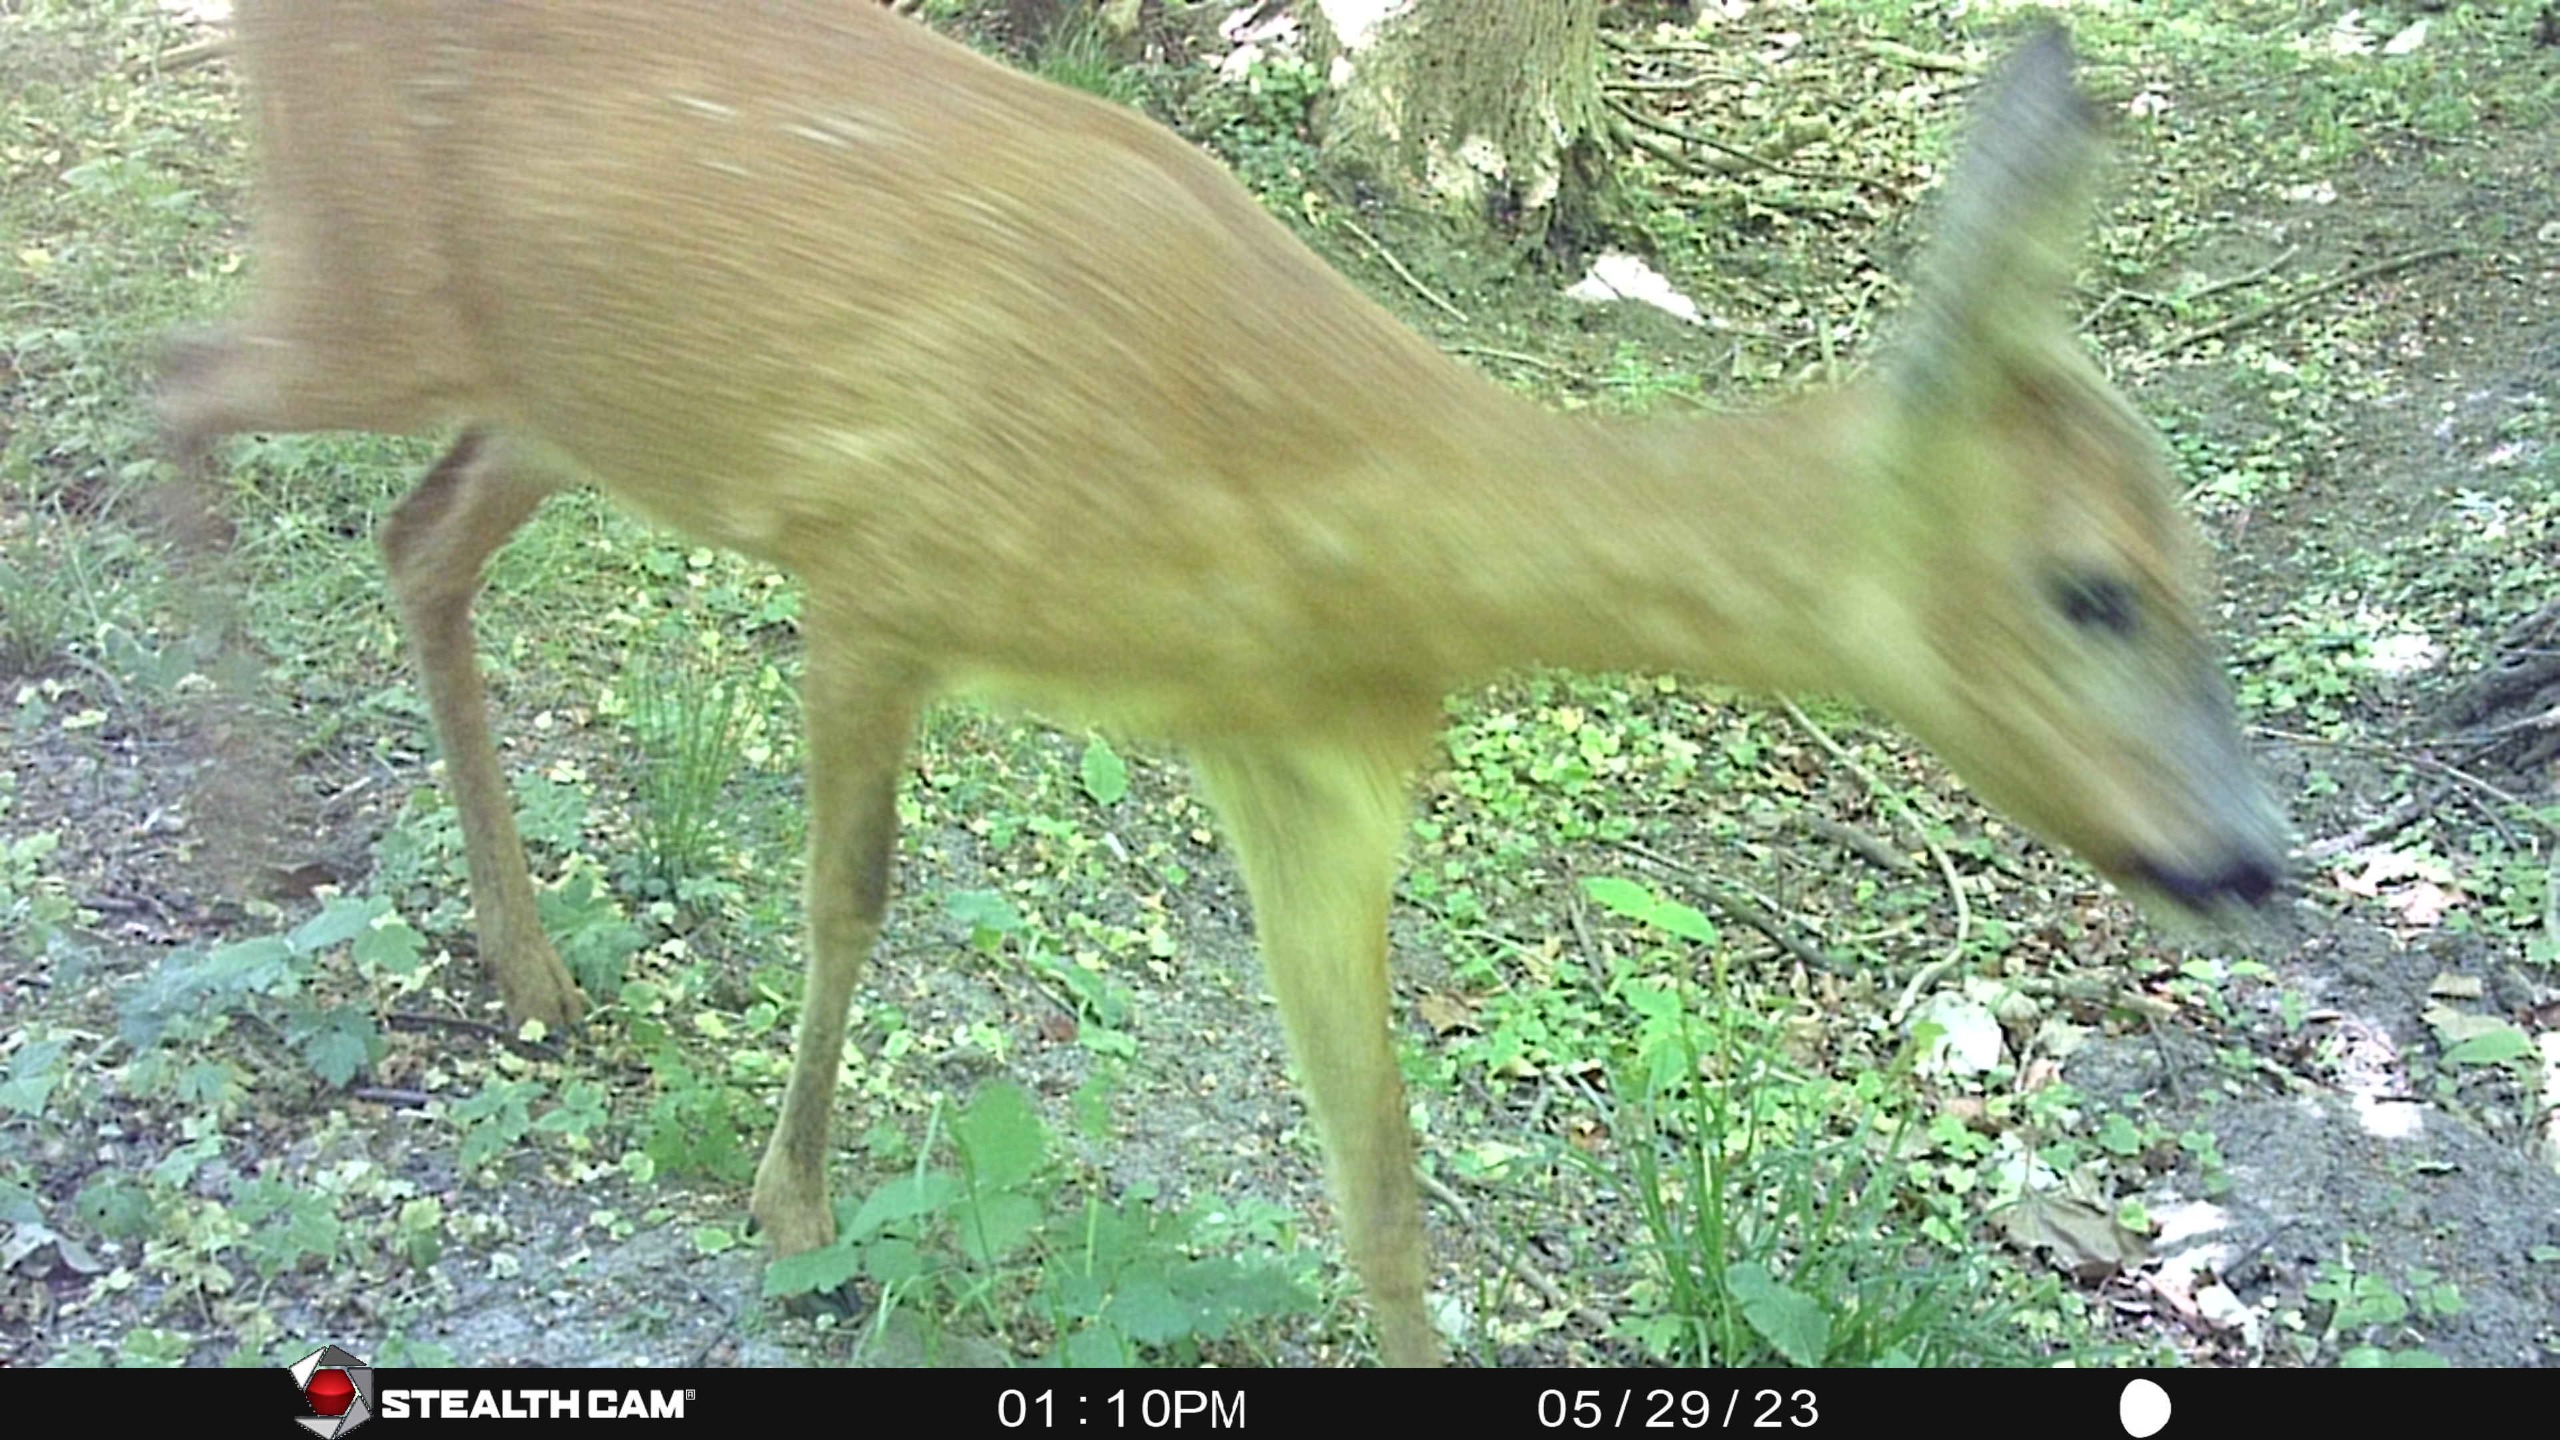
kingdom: Animalia
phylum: Chordata
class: Mammalia
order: Artiodactyla
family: Cervidae
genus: Capreolus
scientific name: Capreolus capreolus
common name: Rådyr
